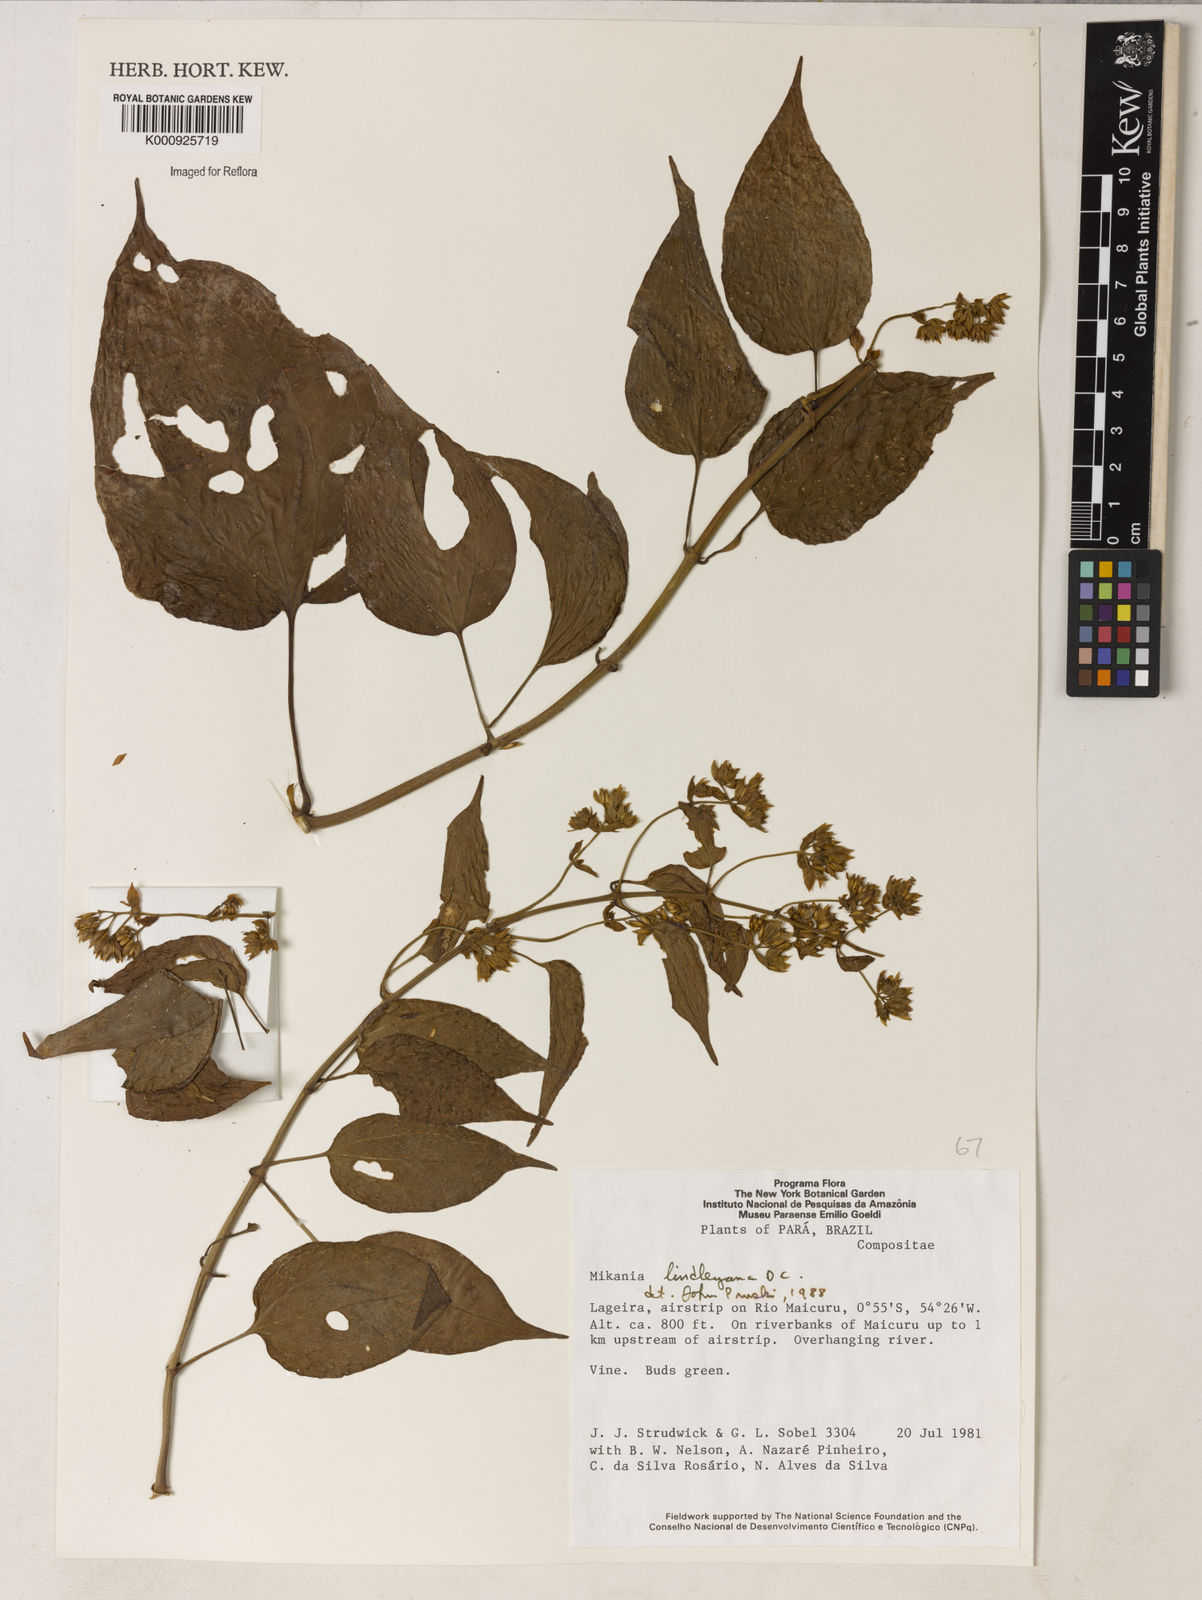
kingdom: Plantae
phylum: Tracheophyta
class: Magnoliopsida
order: Asterales
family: Asteraceae
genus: Mikania
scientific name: Mikania lindleyana
